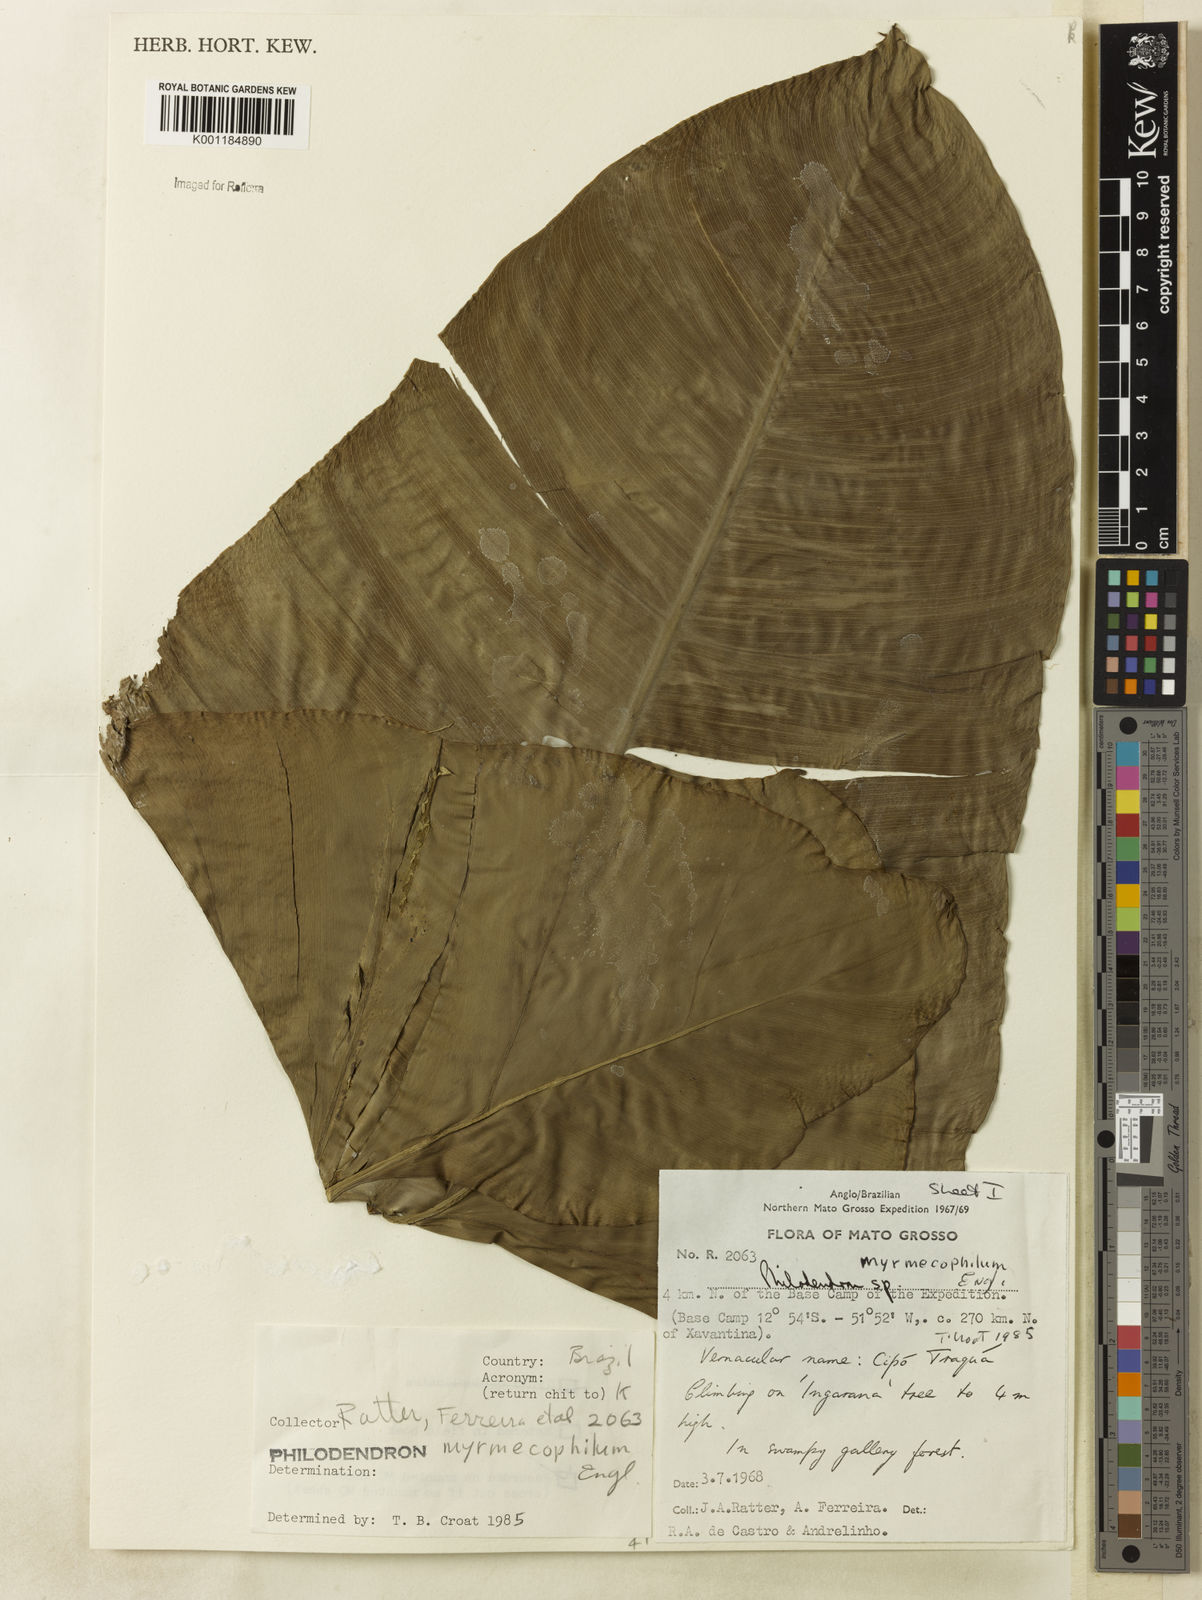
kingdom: Plantae
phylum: Tracheophyta
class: Liliopsida
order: Alismatales
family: Araceae
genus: Philodendron
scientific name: Philodendron wullschlaegelii
